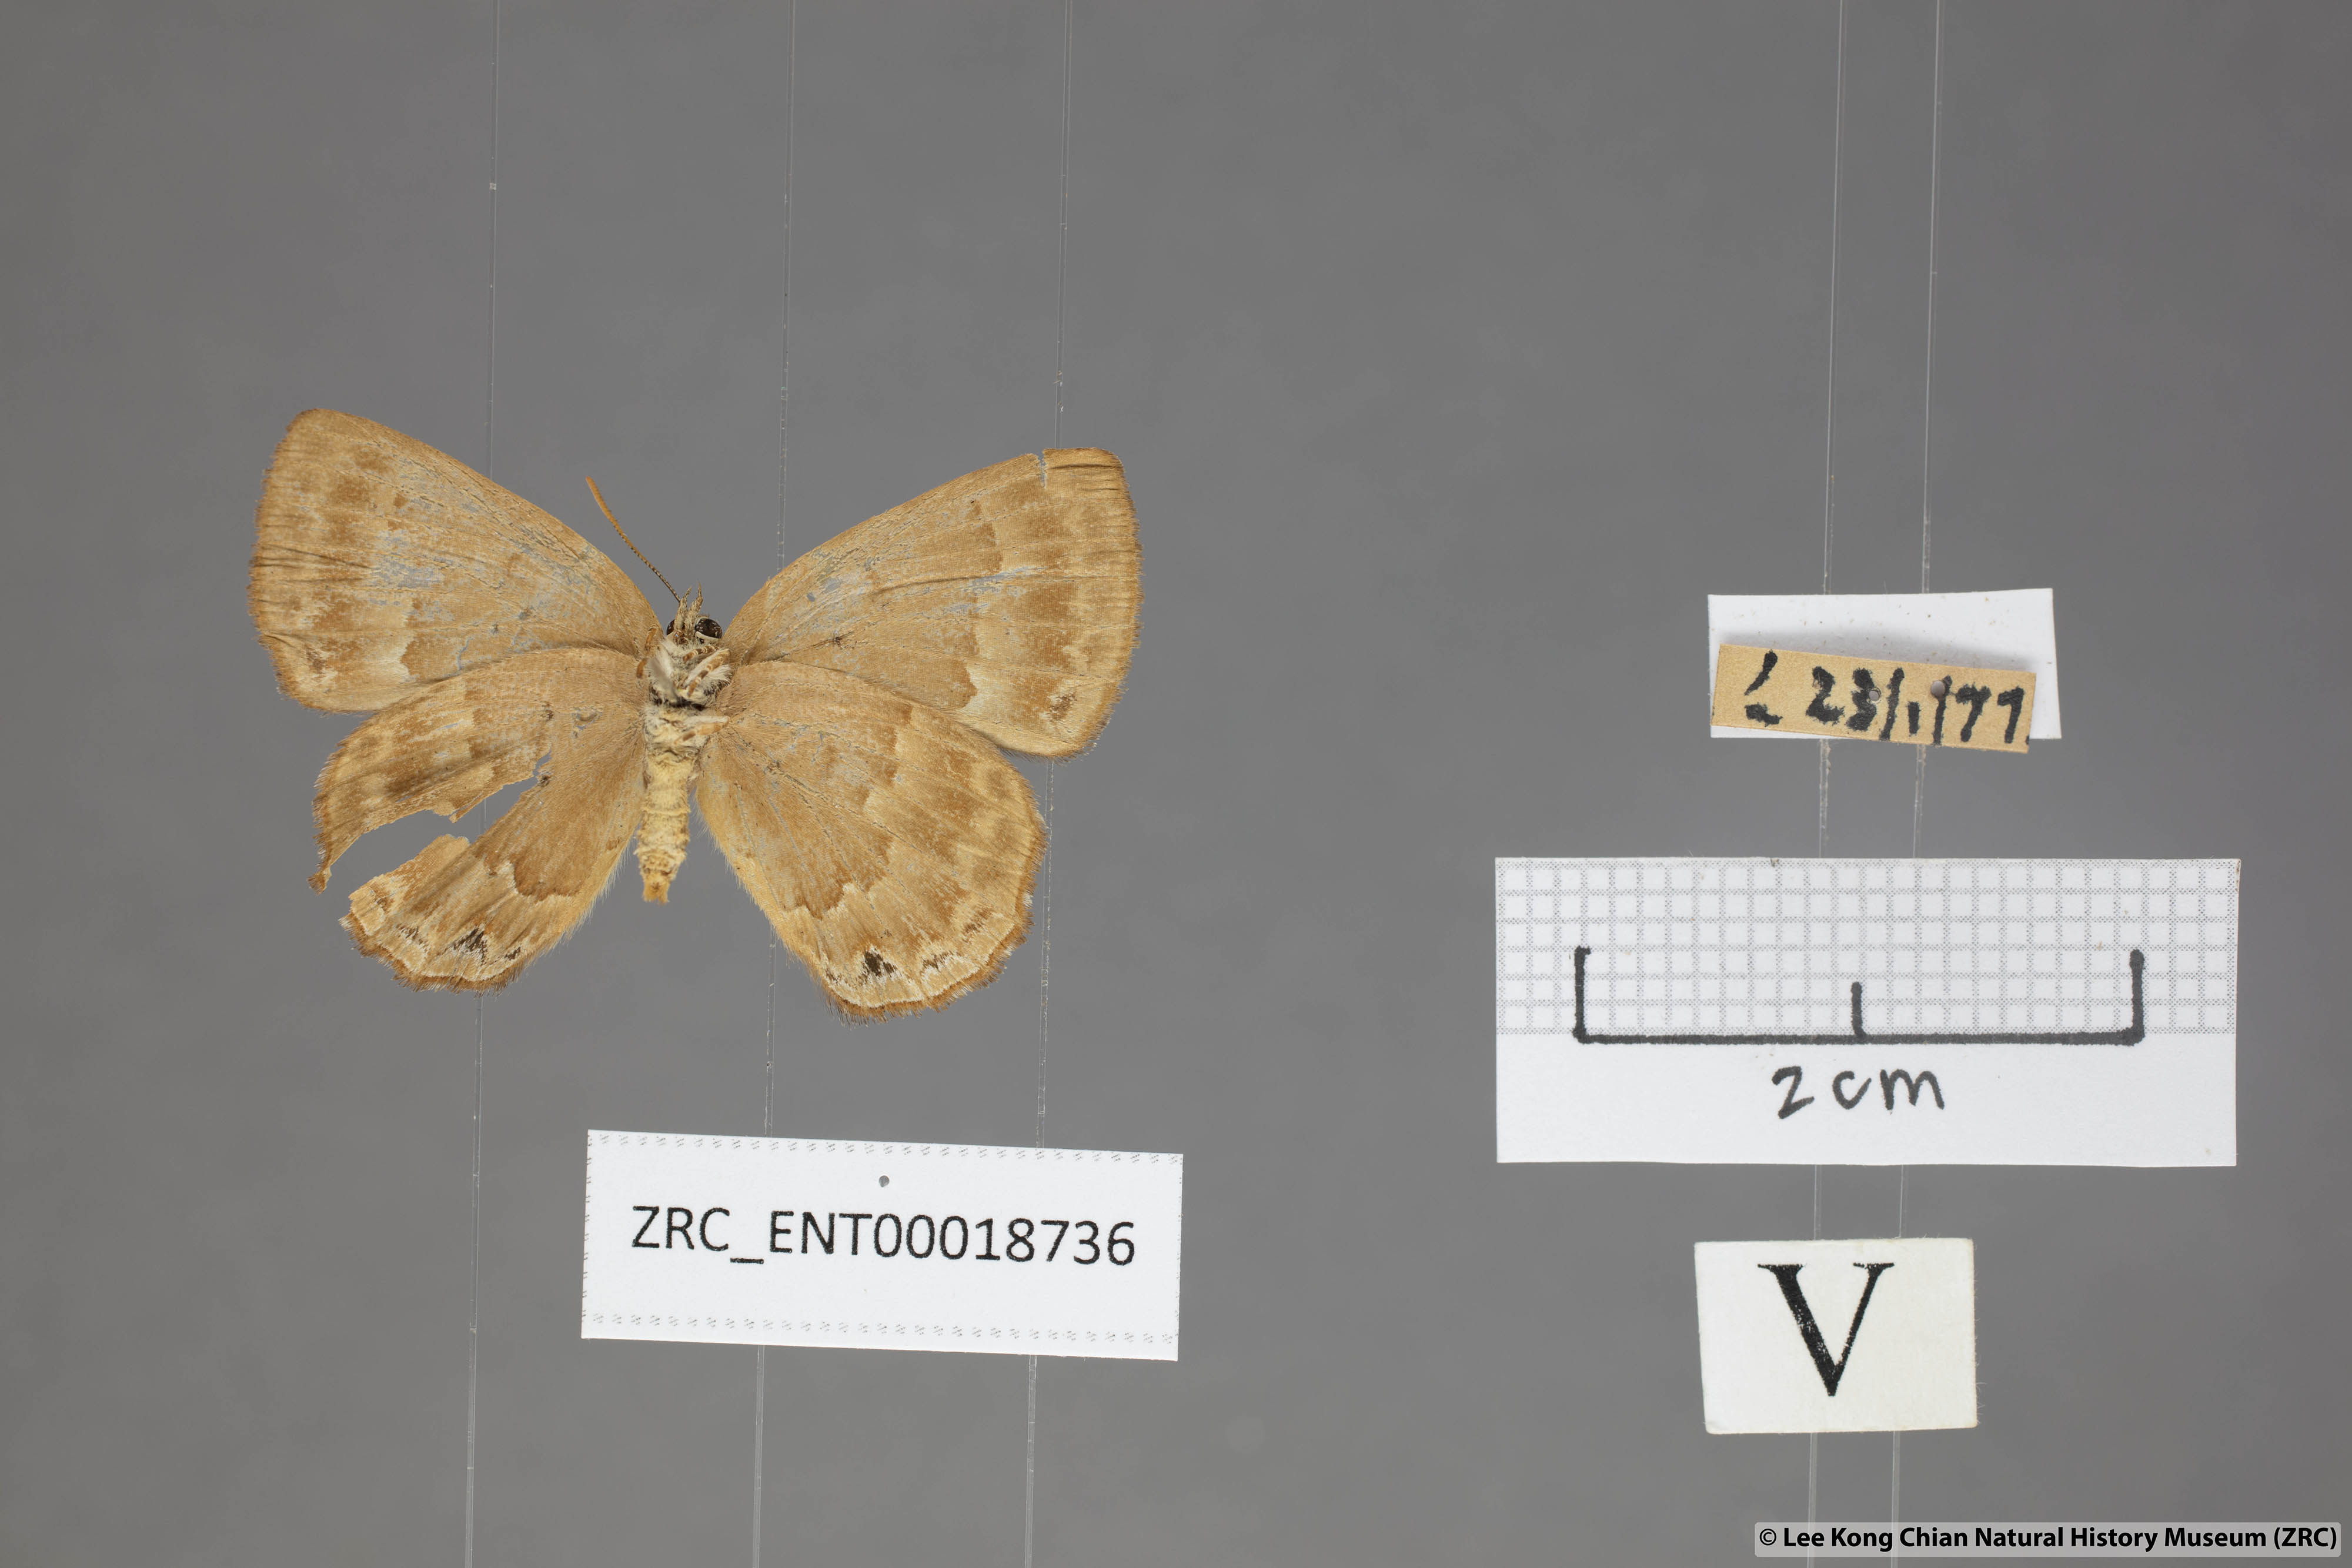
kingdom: Animalia
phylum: Arthropoda
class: Insecta
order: Lepidoptera
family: Lycaenidae
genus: Deramas
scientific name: Deramas livena
